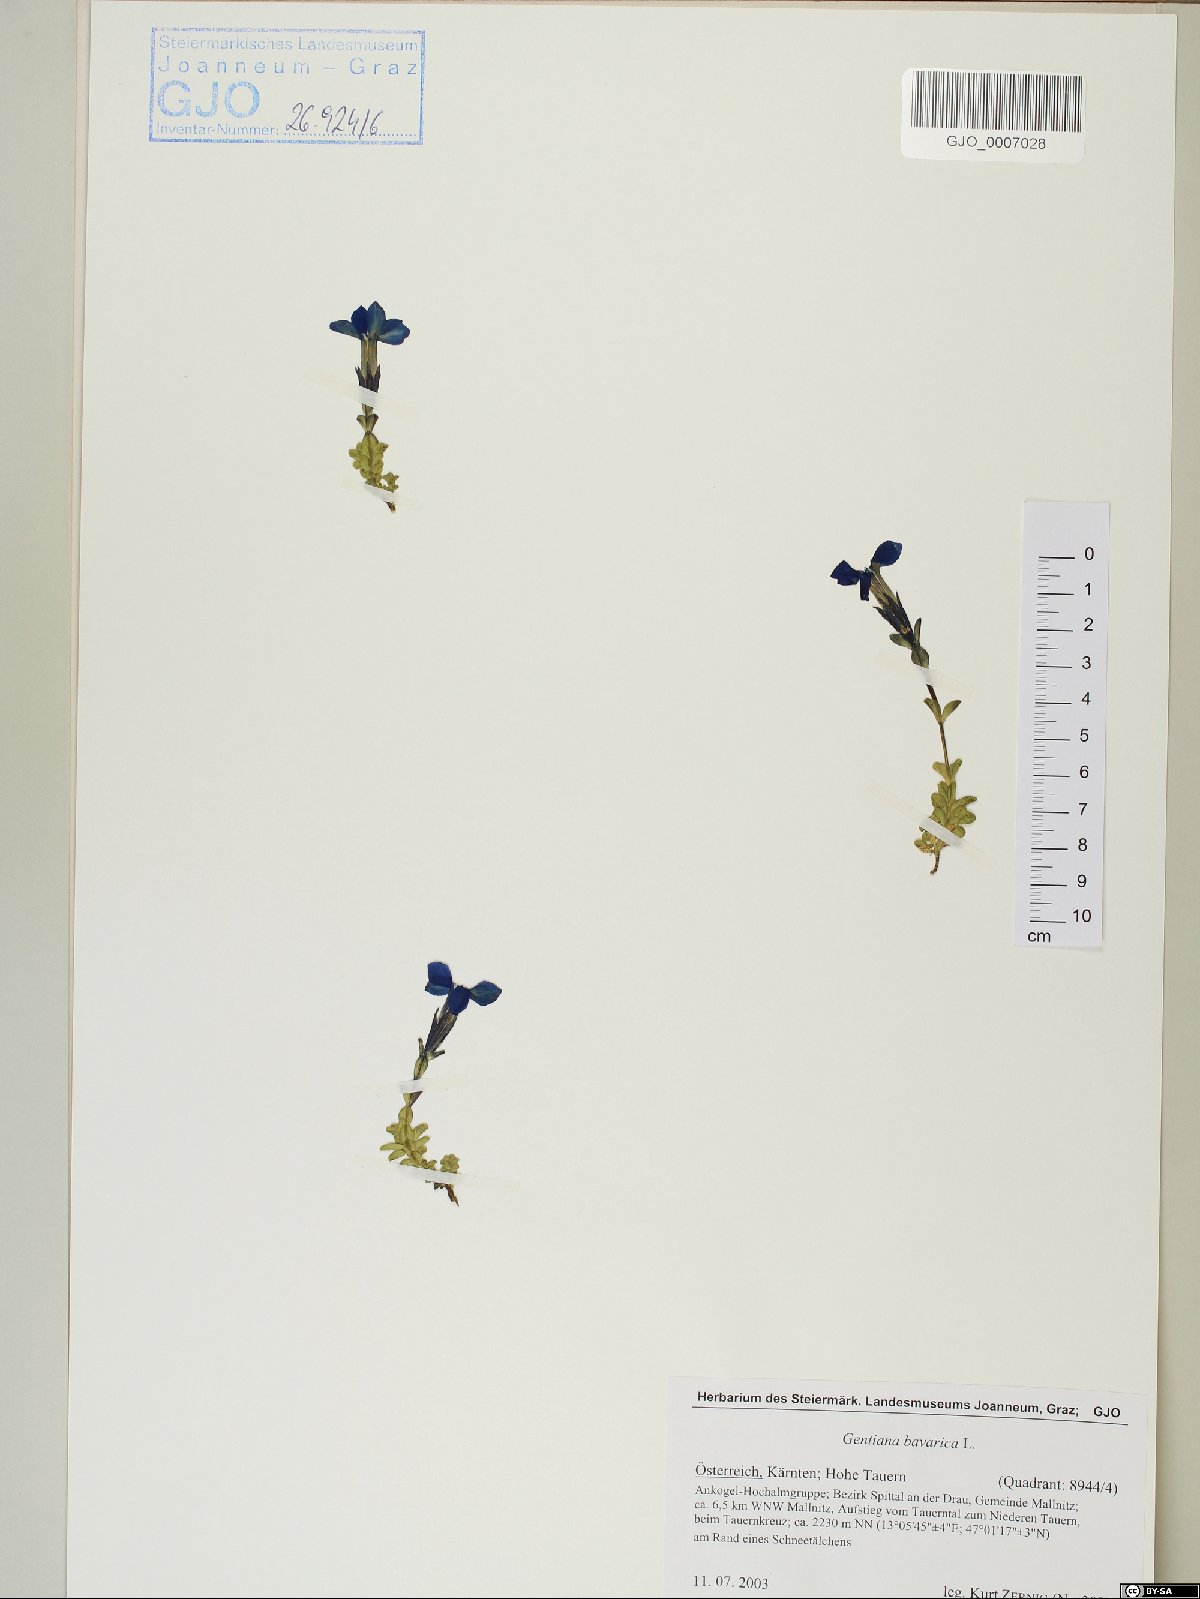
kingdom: Plantae
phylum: Tracheophyta
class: Magnoliopsida
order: Gentianales
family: Gentianaceae
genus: Gentiana
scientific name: Gentiana bavarica
